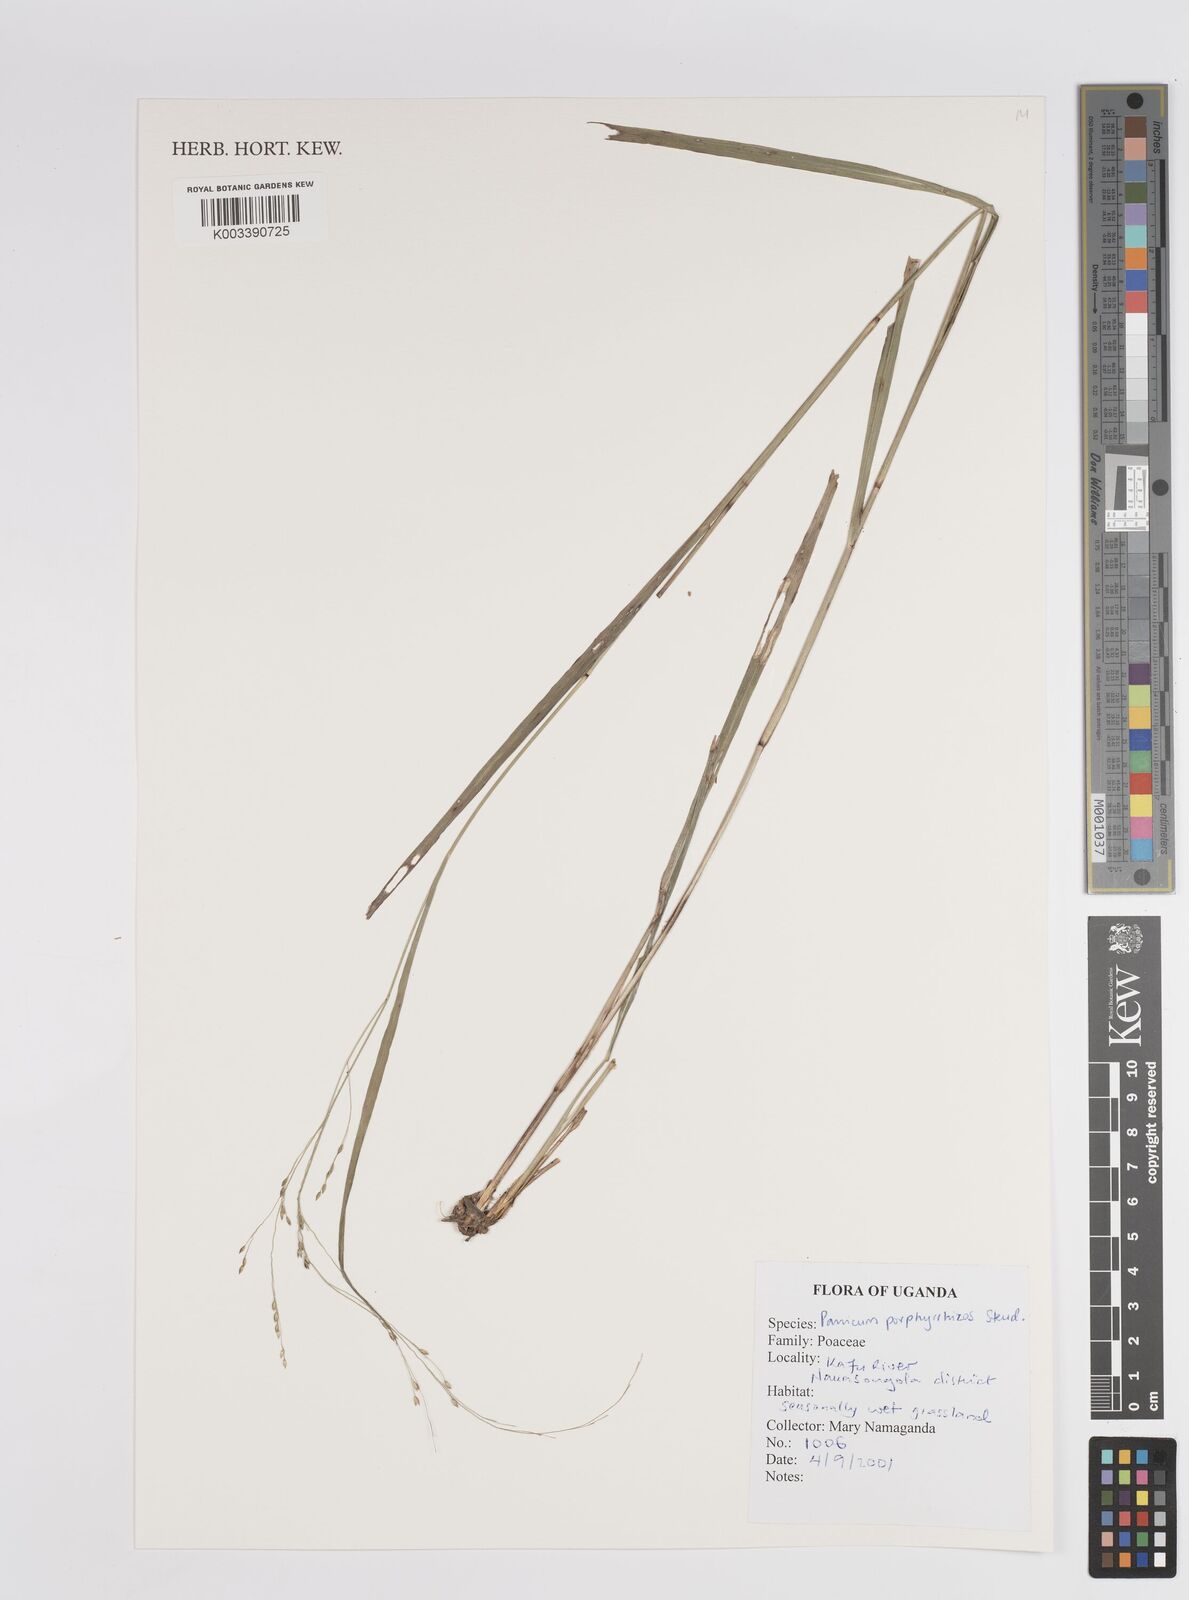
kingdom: Plantae
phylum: Tracheophyta
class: Liliopsida
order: Poales
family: Poaceae
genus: Panicum
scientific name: Panicum porphyrrhizos
